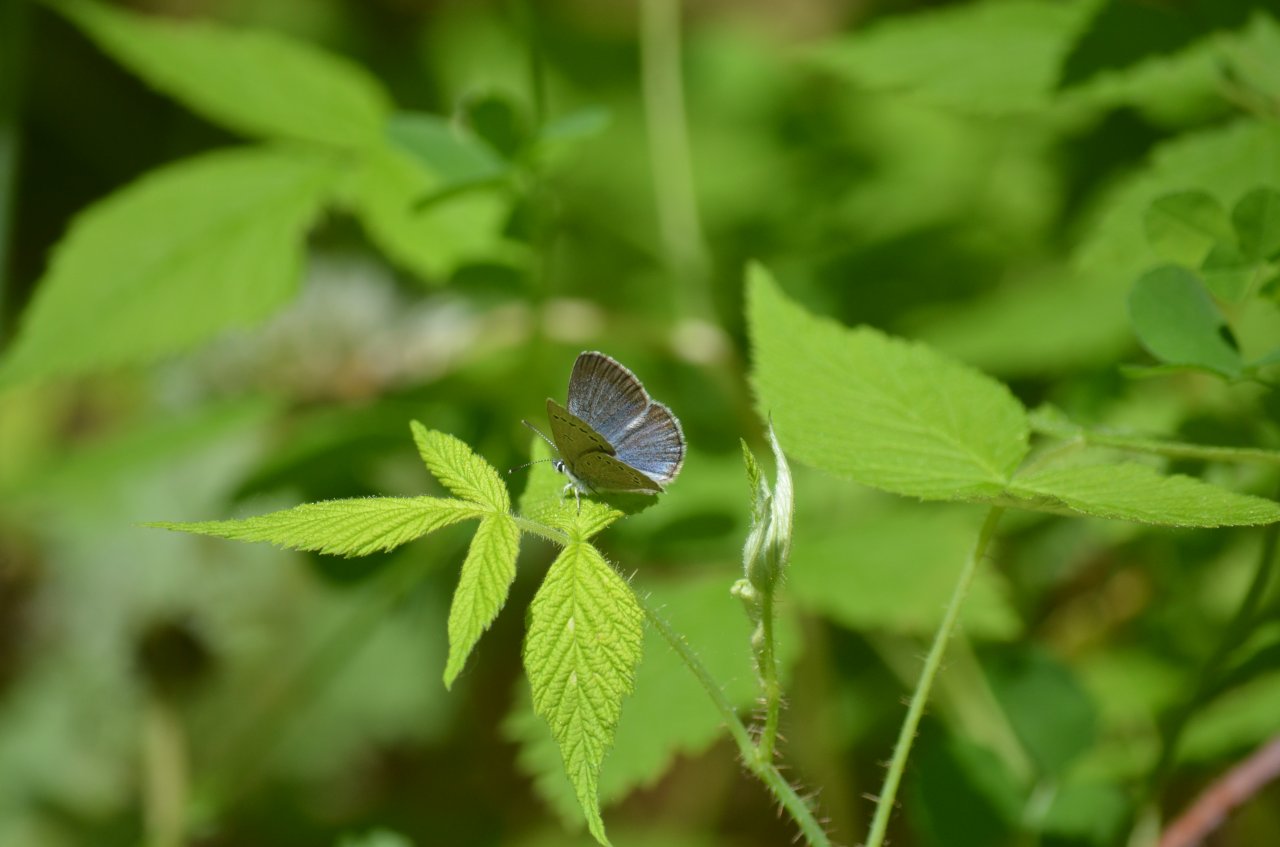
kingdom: Animalia
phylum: Arthropoda
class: Insecta
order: Lepidoptera
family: Lycaenidae
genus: Glaucopsyche
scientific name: Glaucopsyche lygdamus
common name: Silvery Blue
